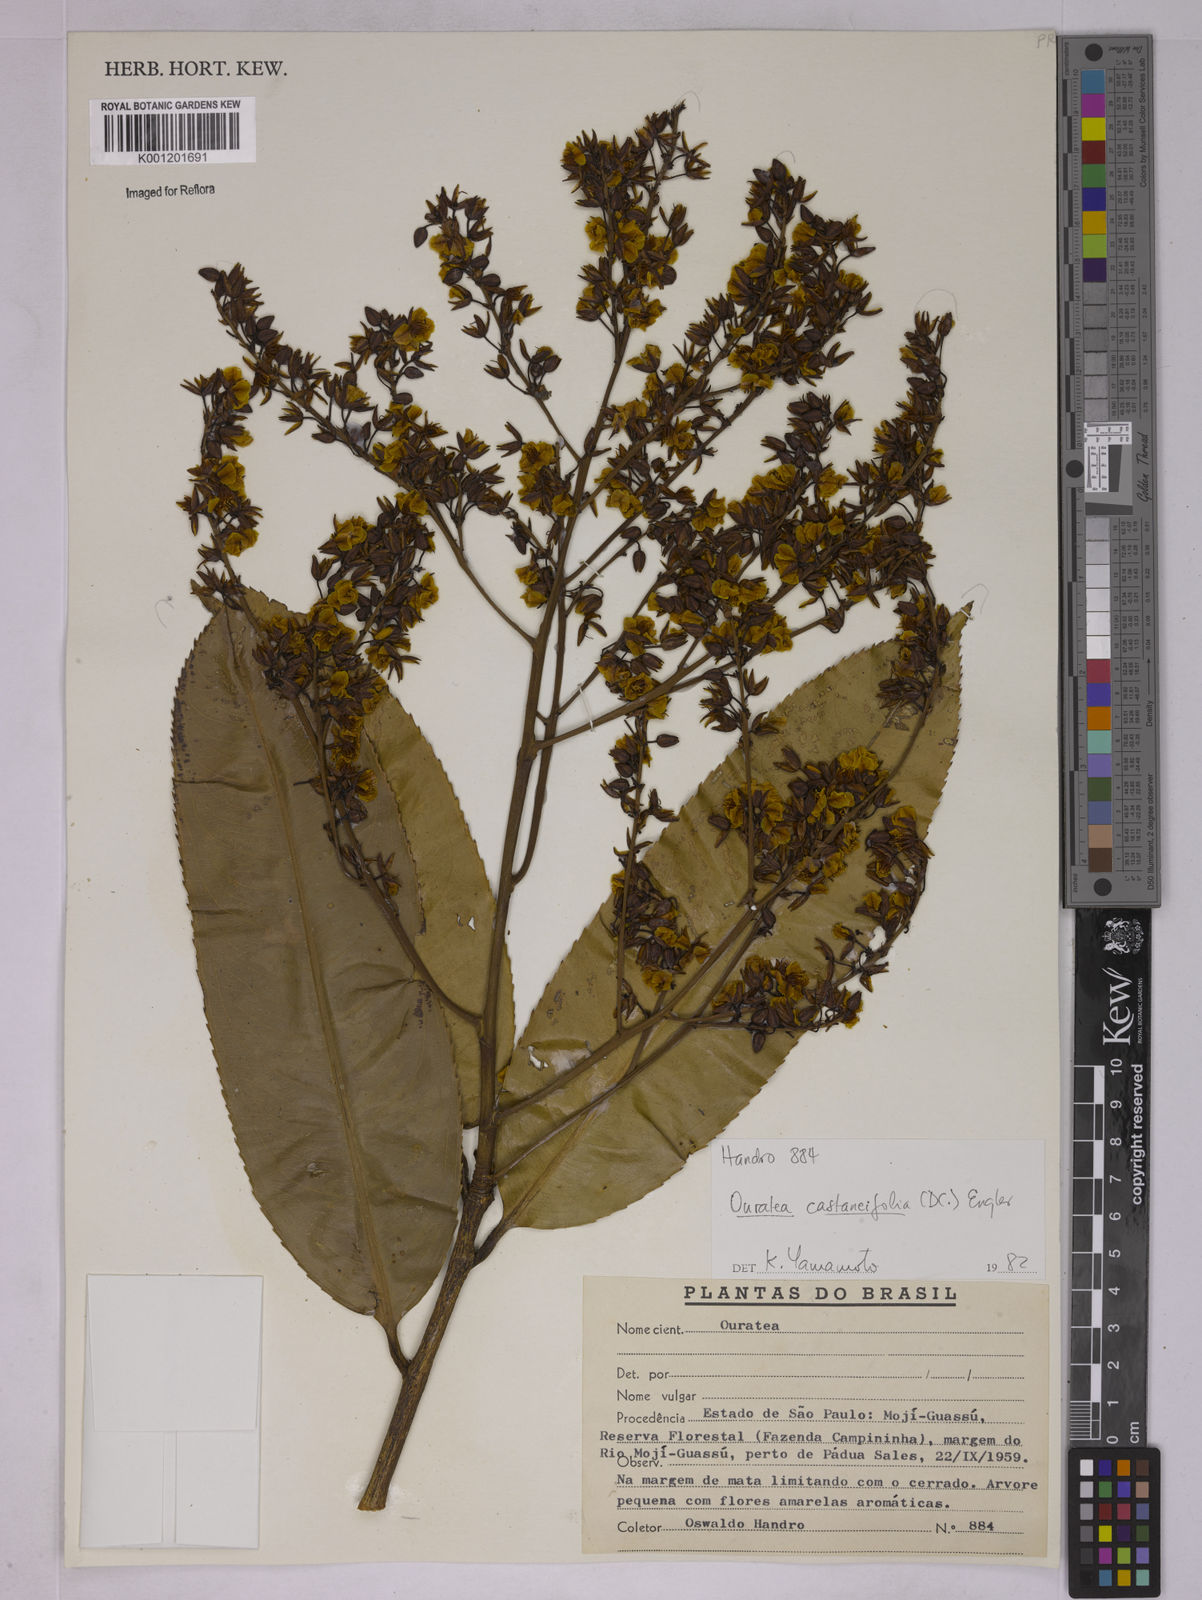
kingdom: Plantae
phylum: Tracheophyta
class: Magnoliopsida
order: Malpighiales
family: Ochnaceae
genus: Ouratea
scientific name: Ouratea castaneifolia
